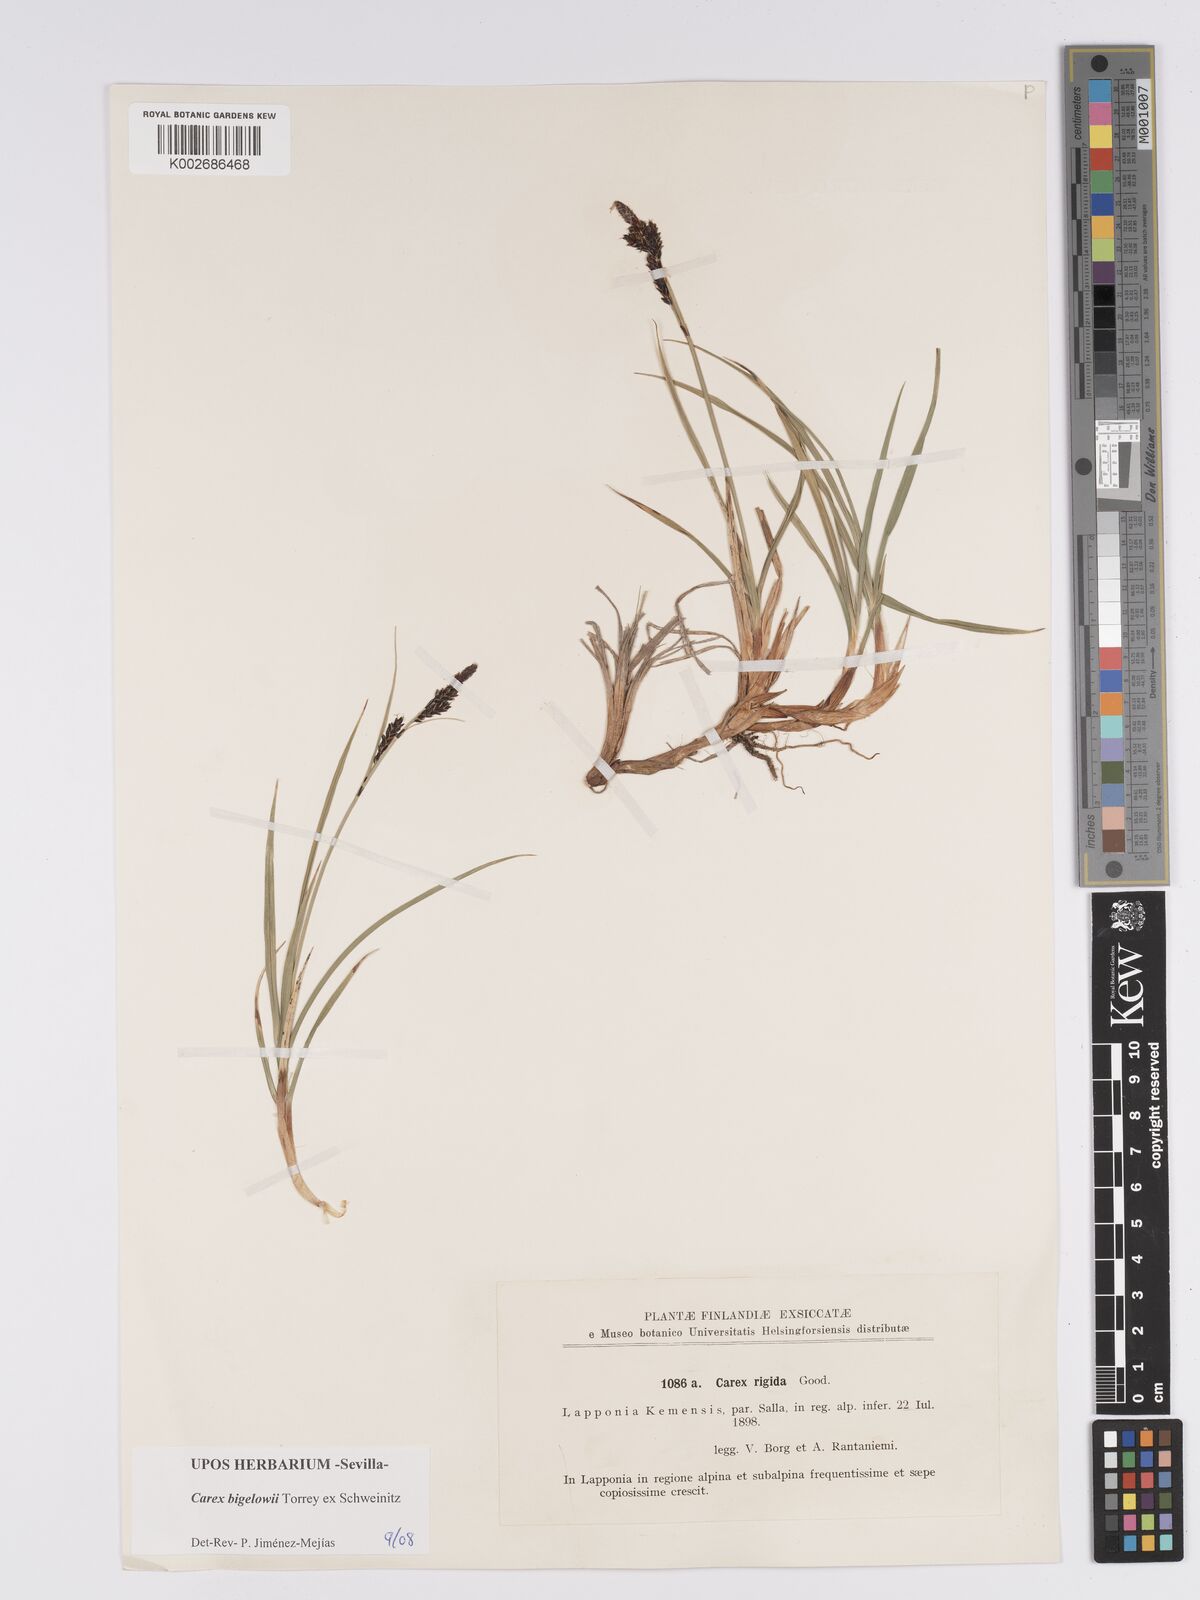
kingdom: Plantae
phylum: Tracheophyta
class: Liliopsida
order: Poales
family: Cyperaceae
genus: Carex
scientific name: Carex bigelowii
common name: Stiff sedge
